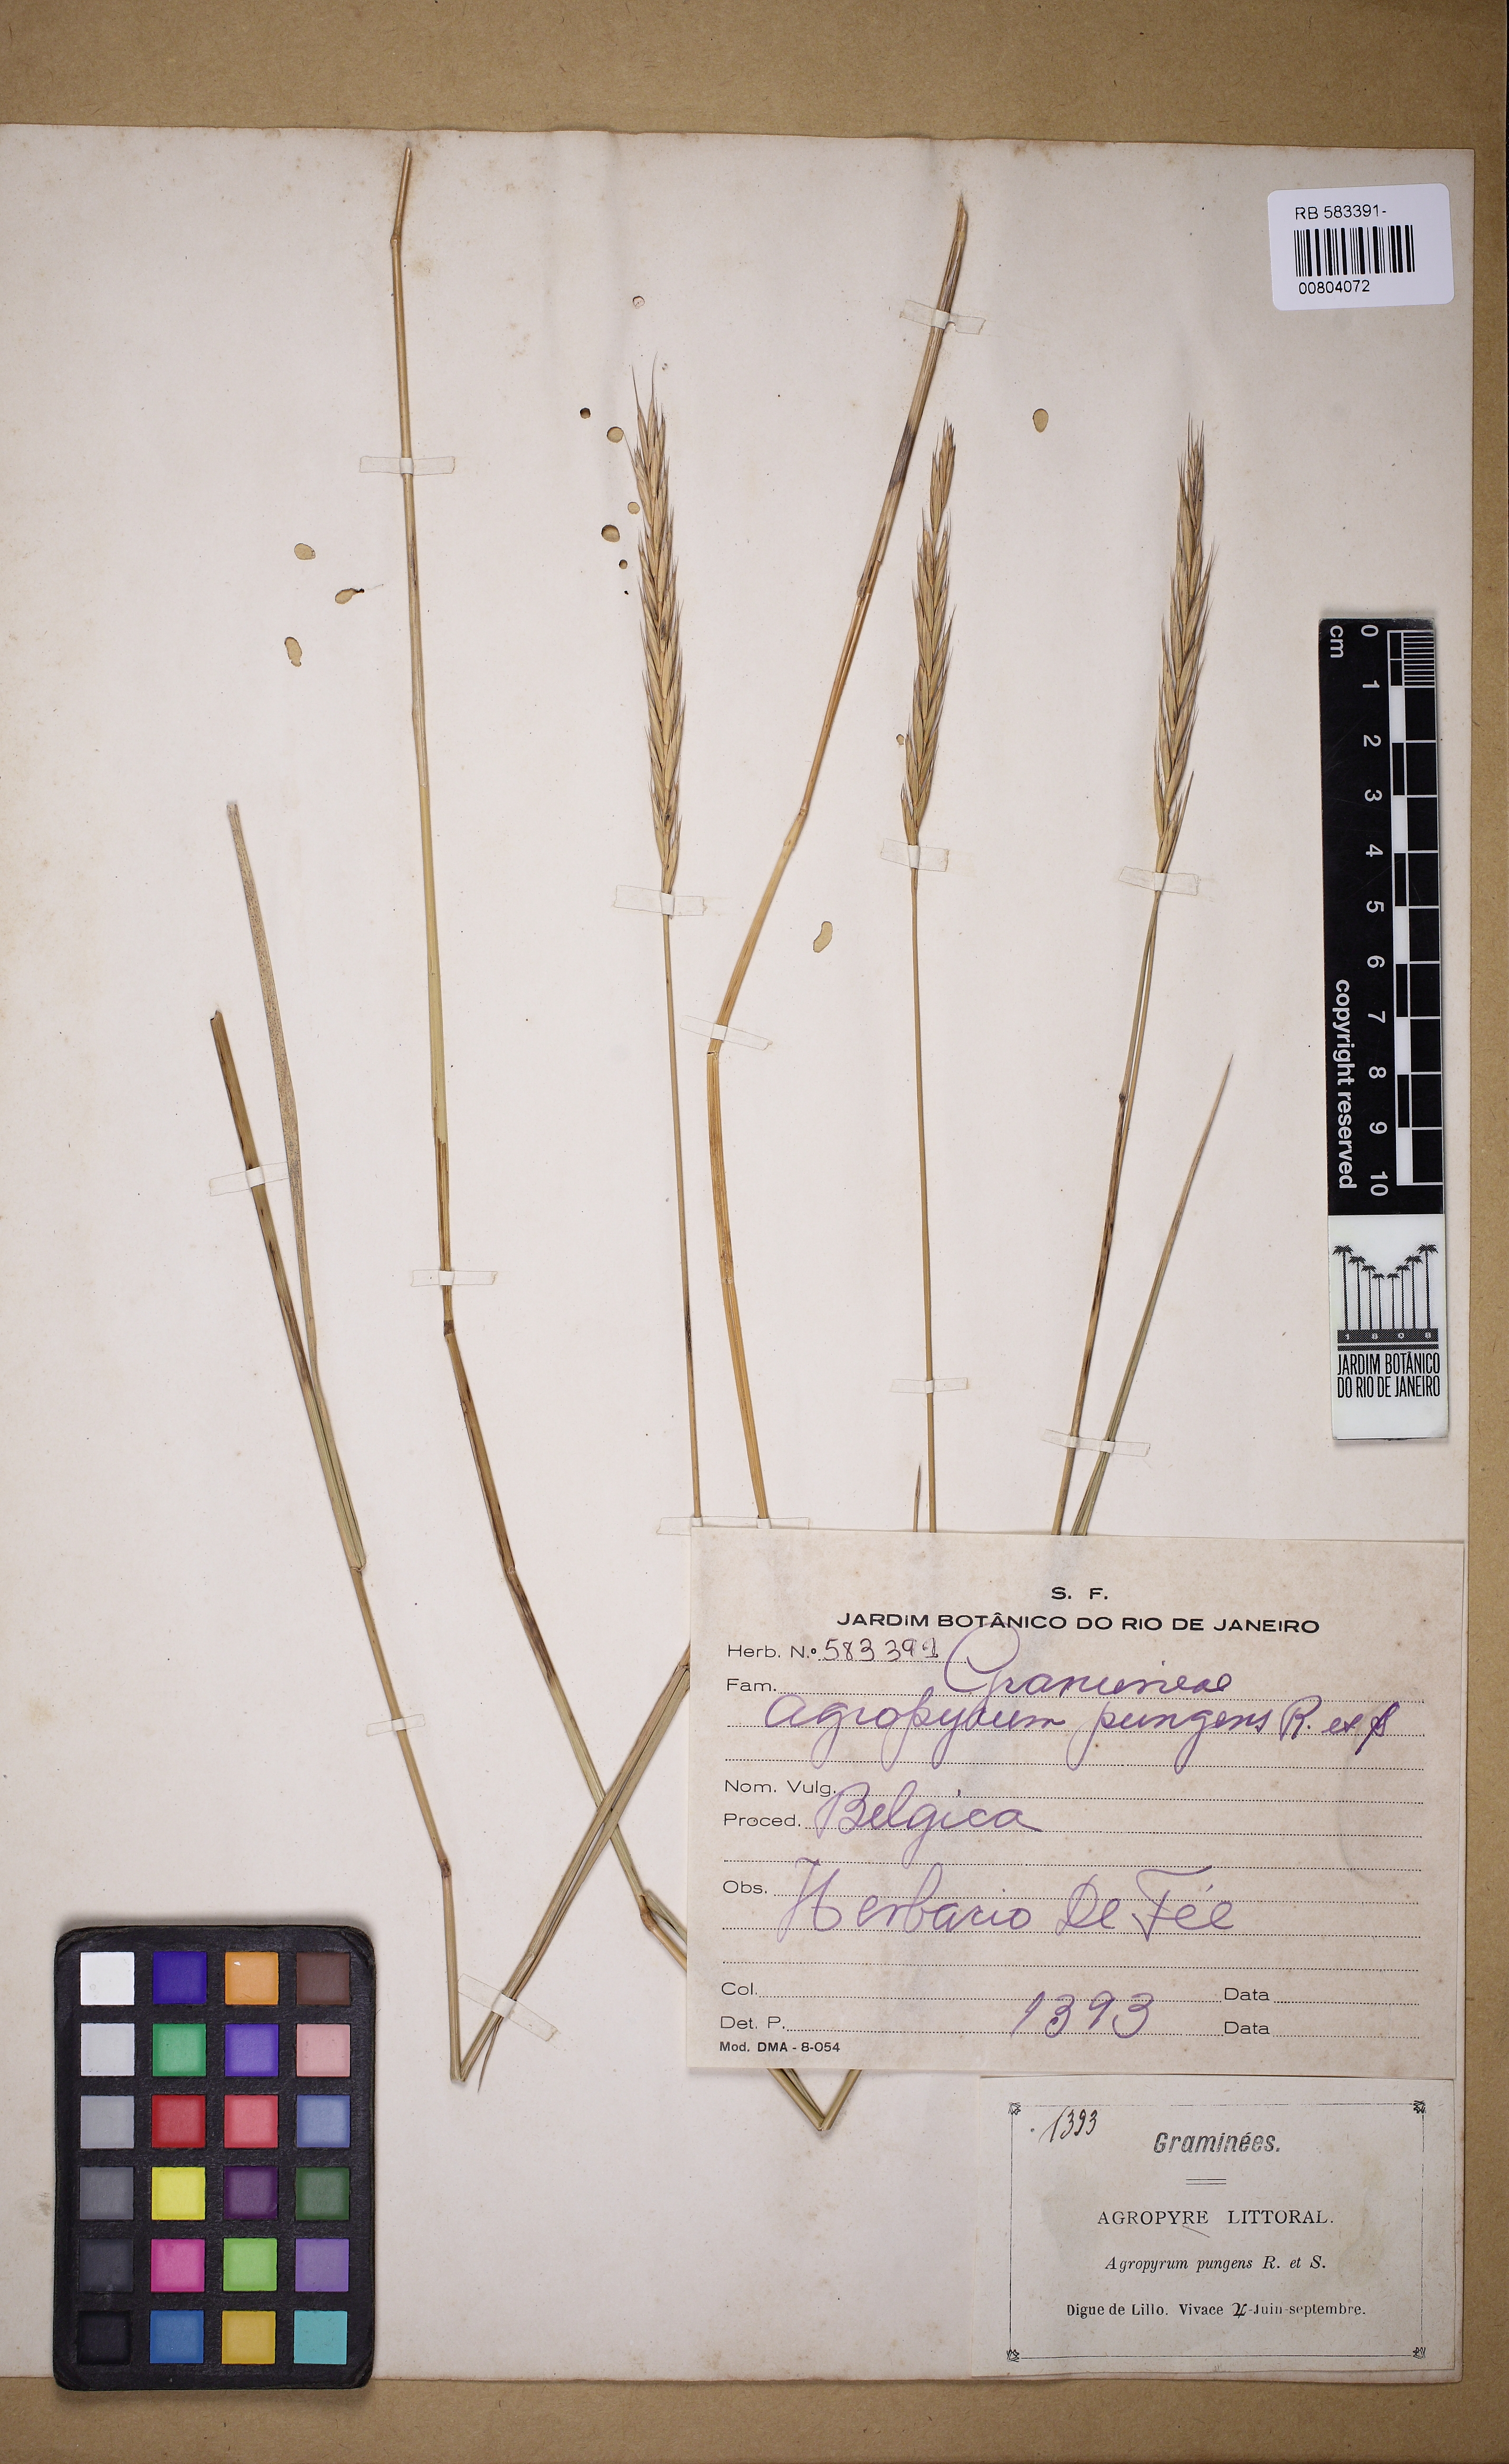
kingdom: Plantae
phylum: Tracheophyta
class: Liliopsida
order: Poales
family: Poaceae
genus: Elymus
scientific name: Elymus pungens
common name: Sea couch
